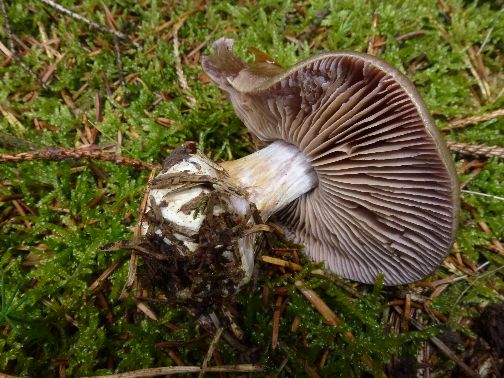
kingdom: Fungi
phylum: Basidiomycota
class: Agaricomycetes
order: Agaricales
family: Cortinariaceae
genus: Thaxterogaster
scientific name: Thaxterogaster sphagnophilus
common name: vandplettet slørhat
